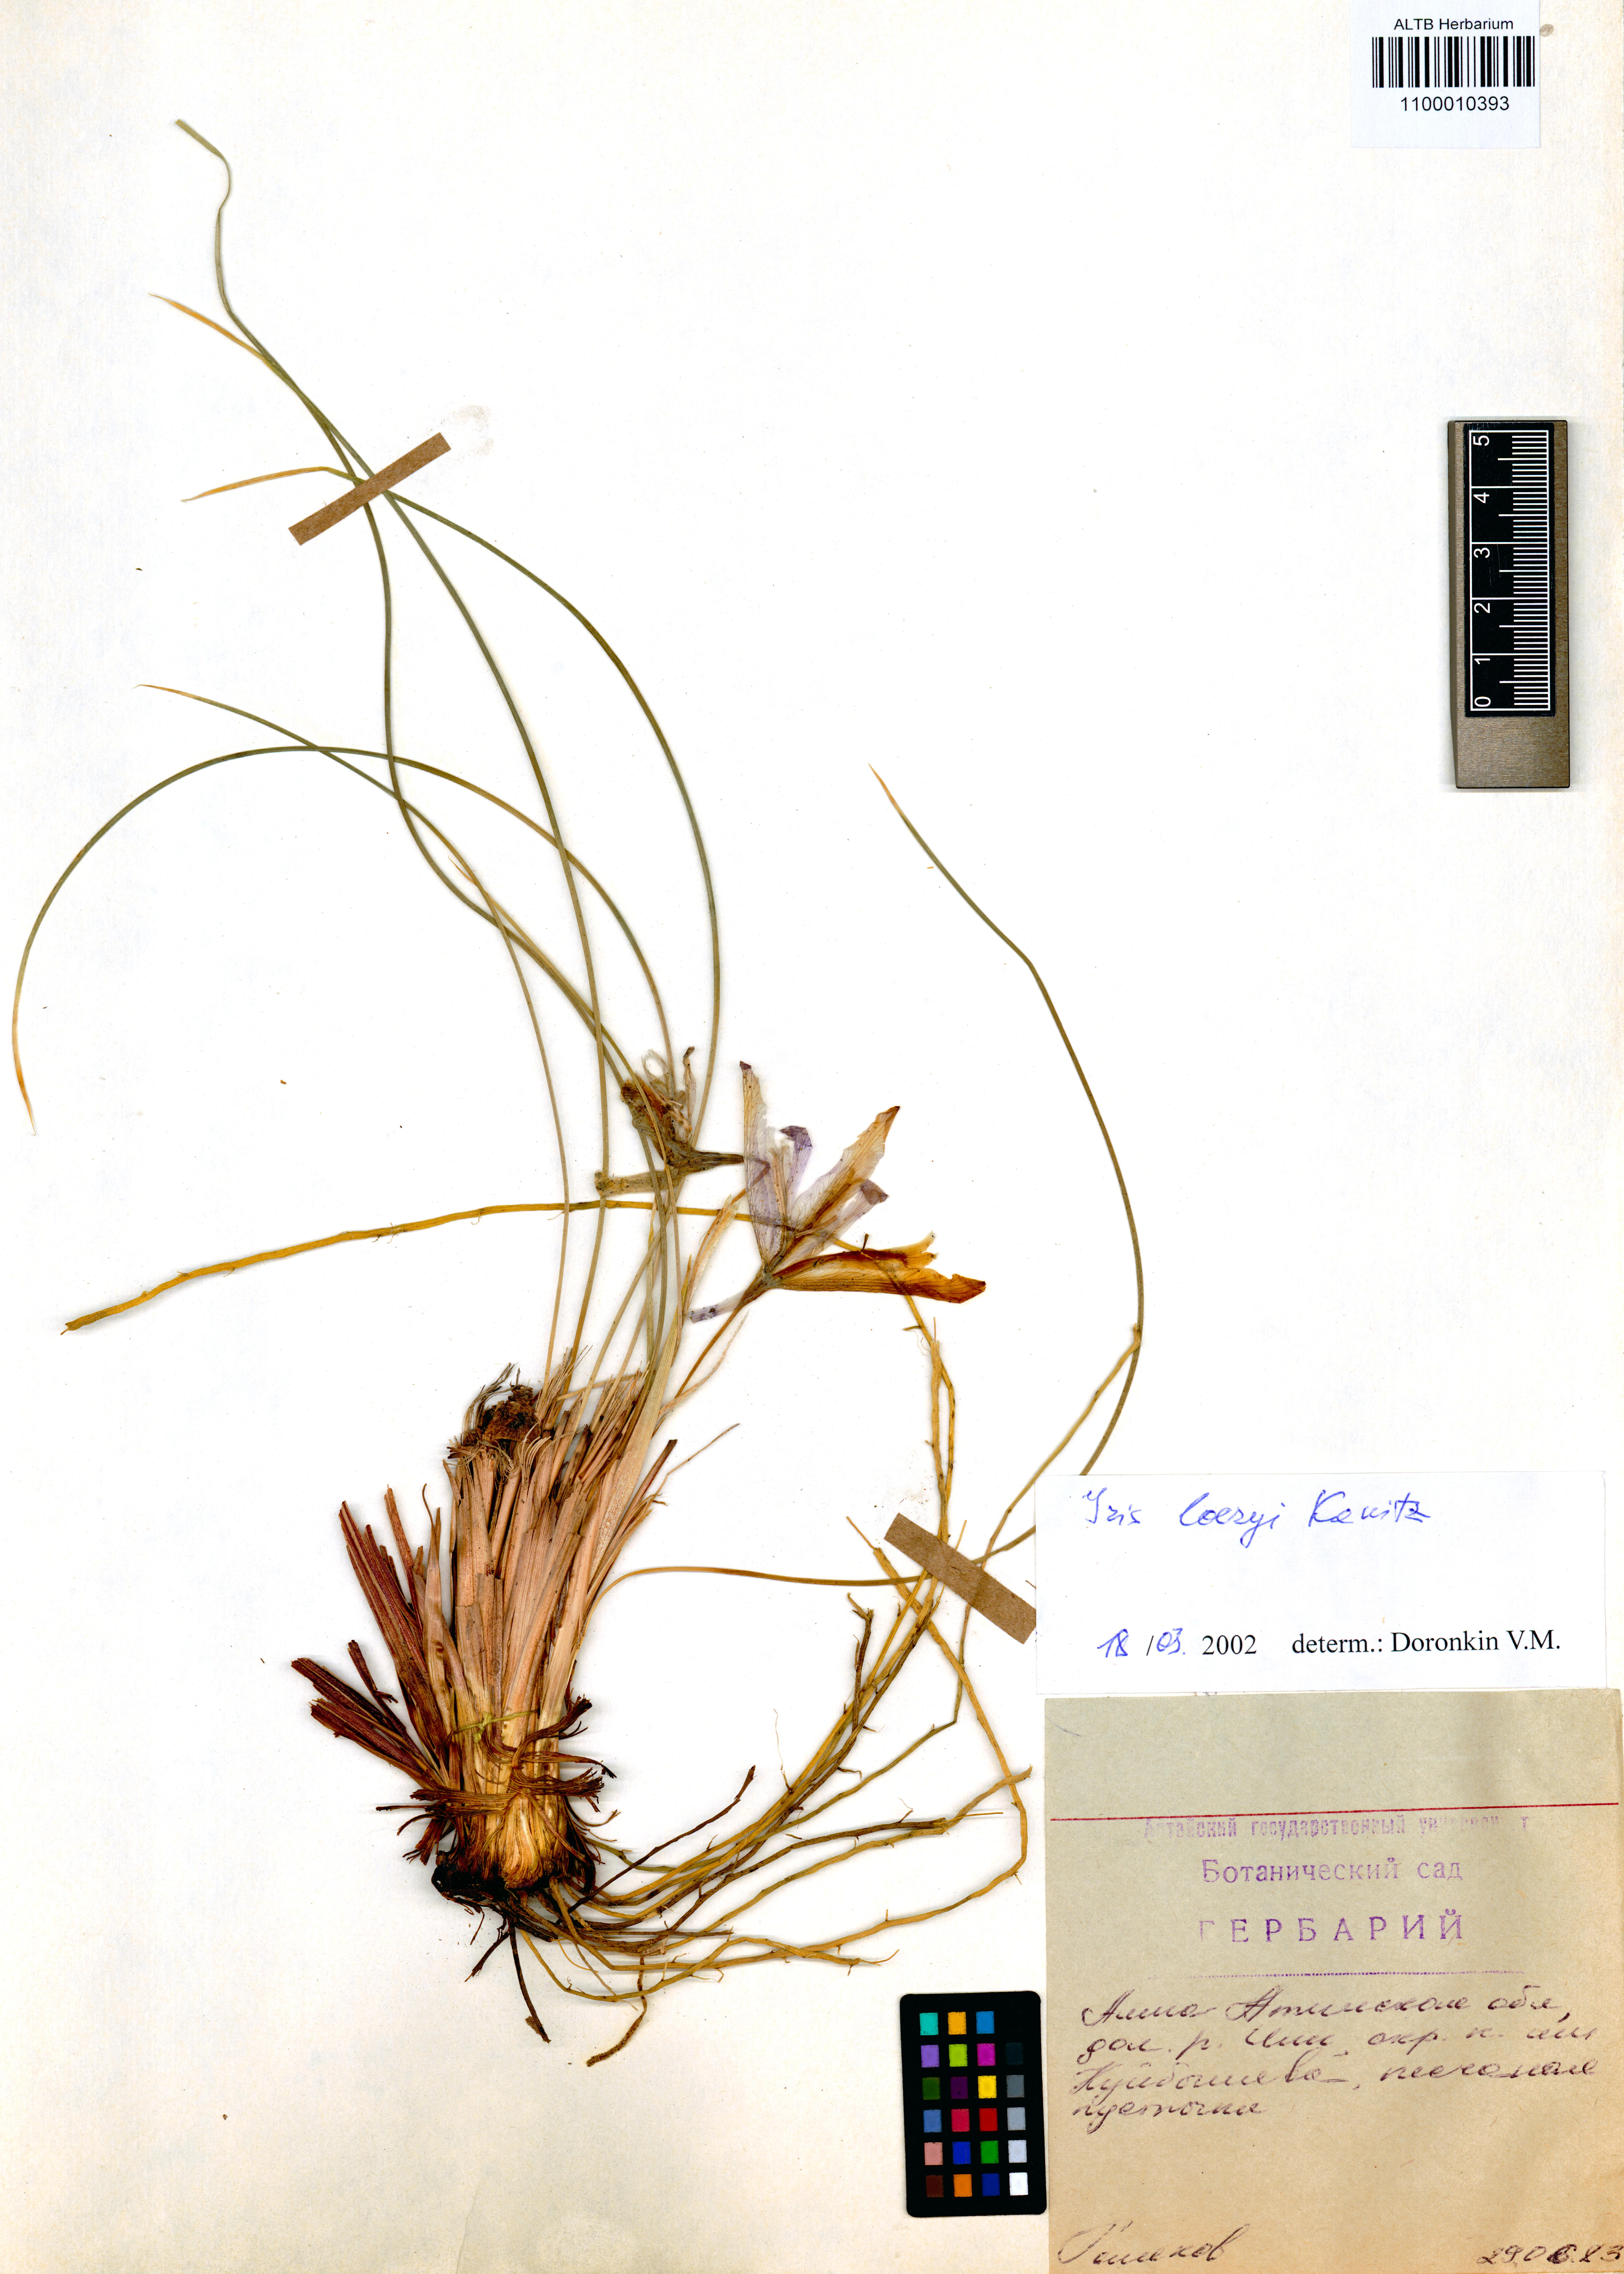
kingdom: Plantae
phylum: Tracheophyta
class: Liliopsida
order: Asparagales
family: Iridaceae
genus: Iris
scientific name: Iris loczyi
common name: Tian shan mountain iris
